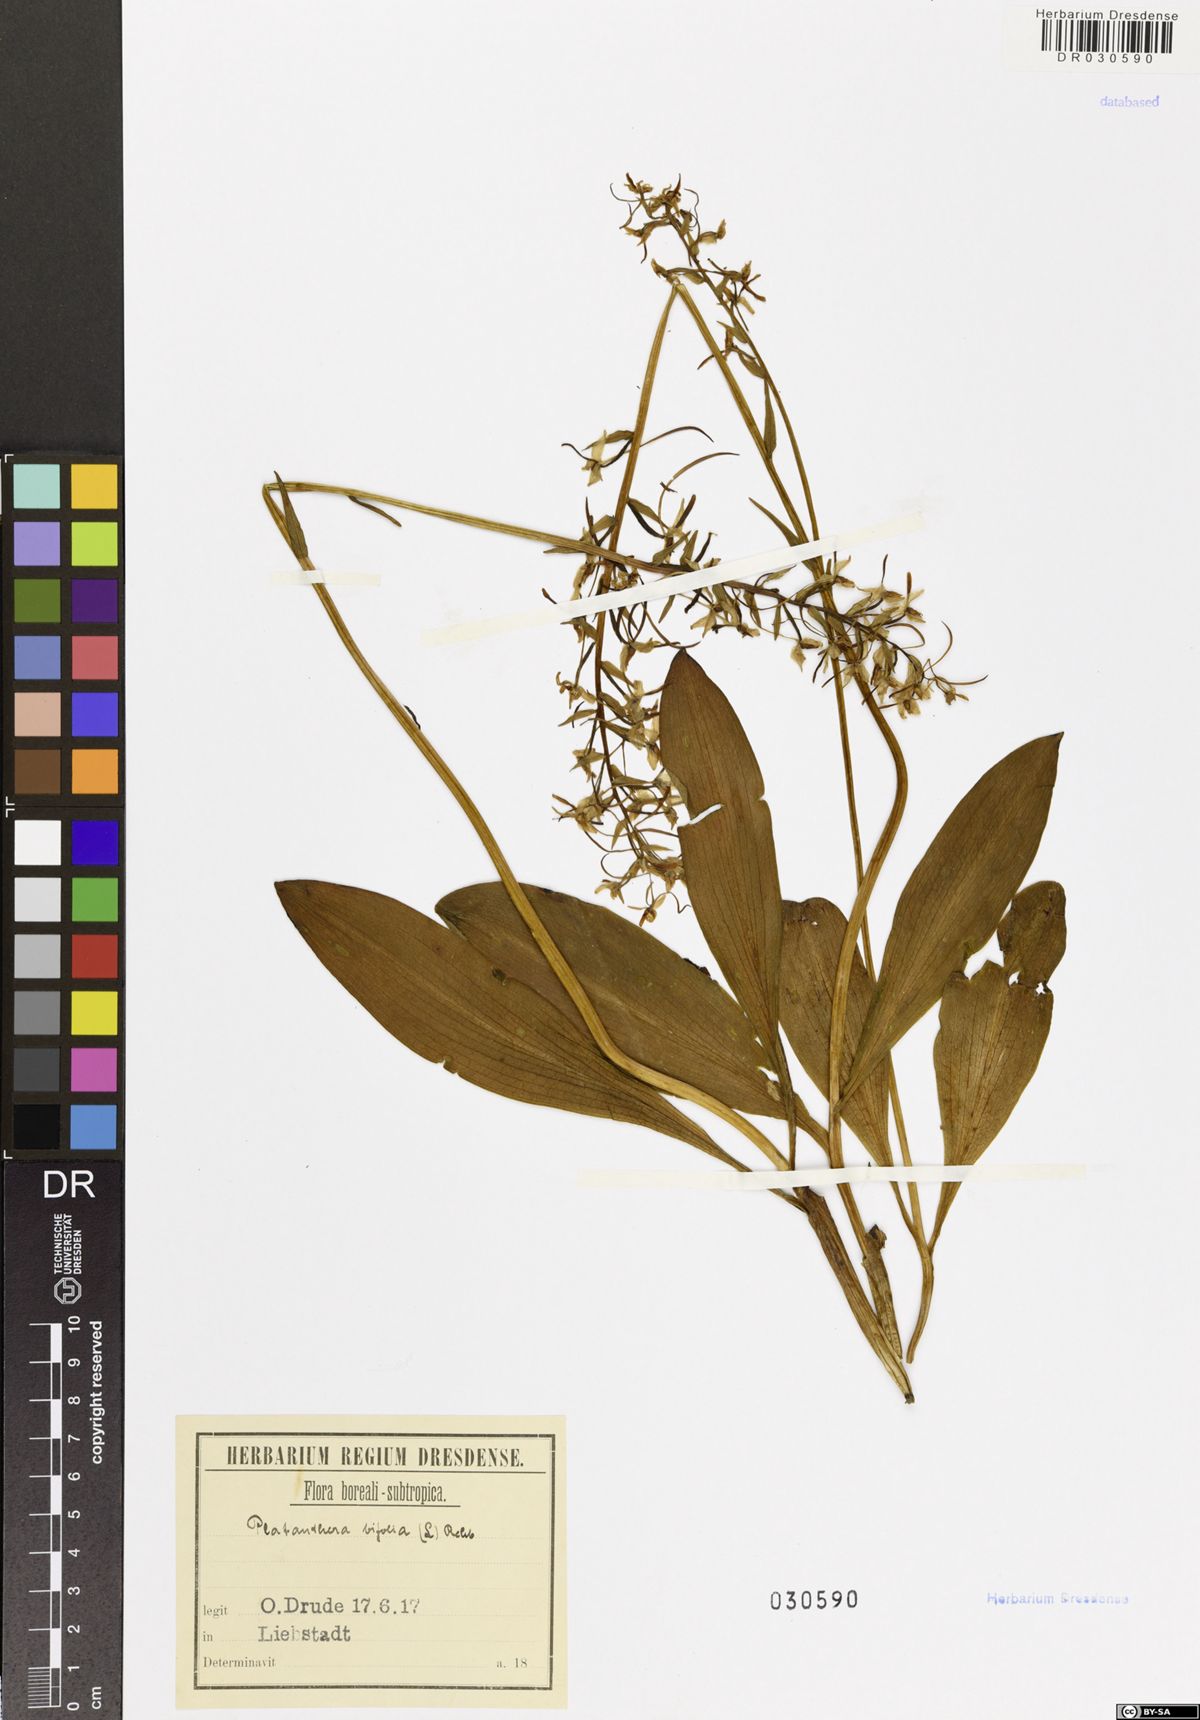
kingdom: Plantae
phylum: Tracheophyta
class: Liliopsida
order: Asparagales
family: Orchidaceae
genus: Platanthera
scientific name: Platanthera bifolia
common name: Lesser butterfly-orchid
